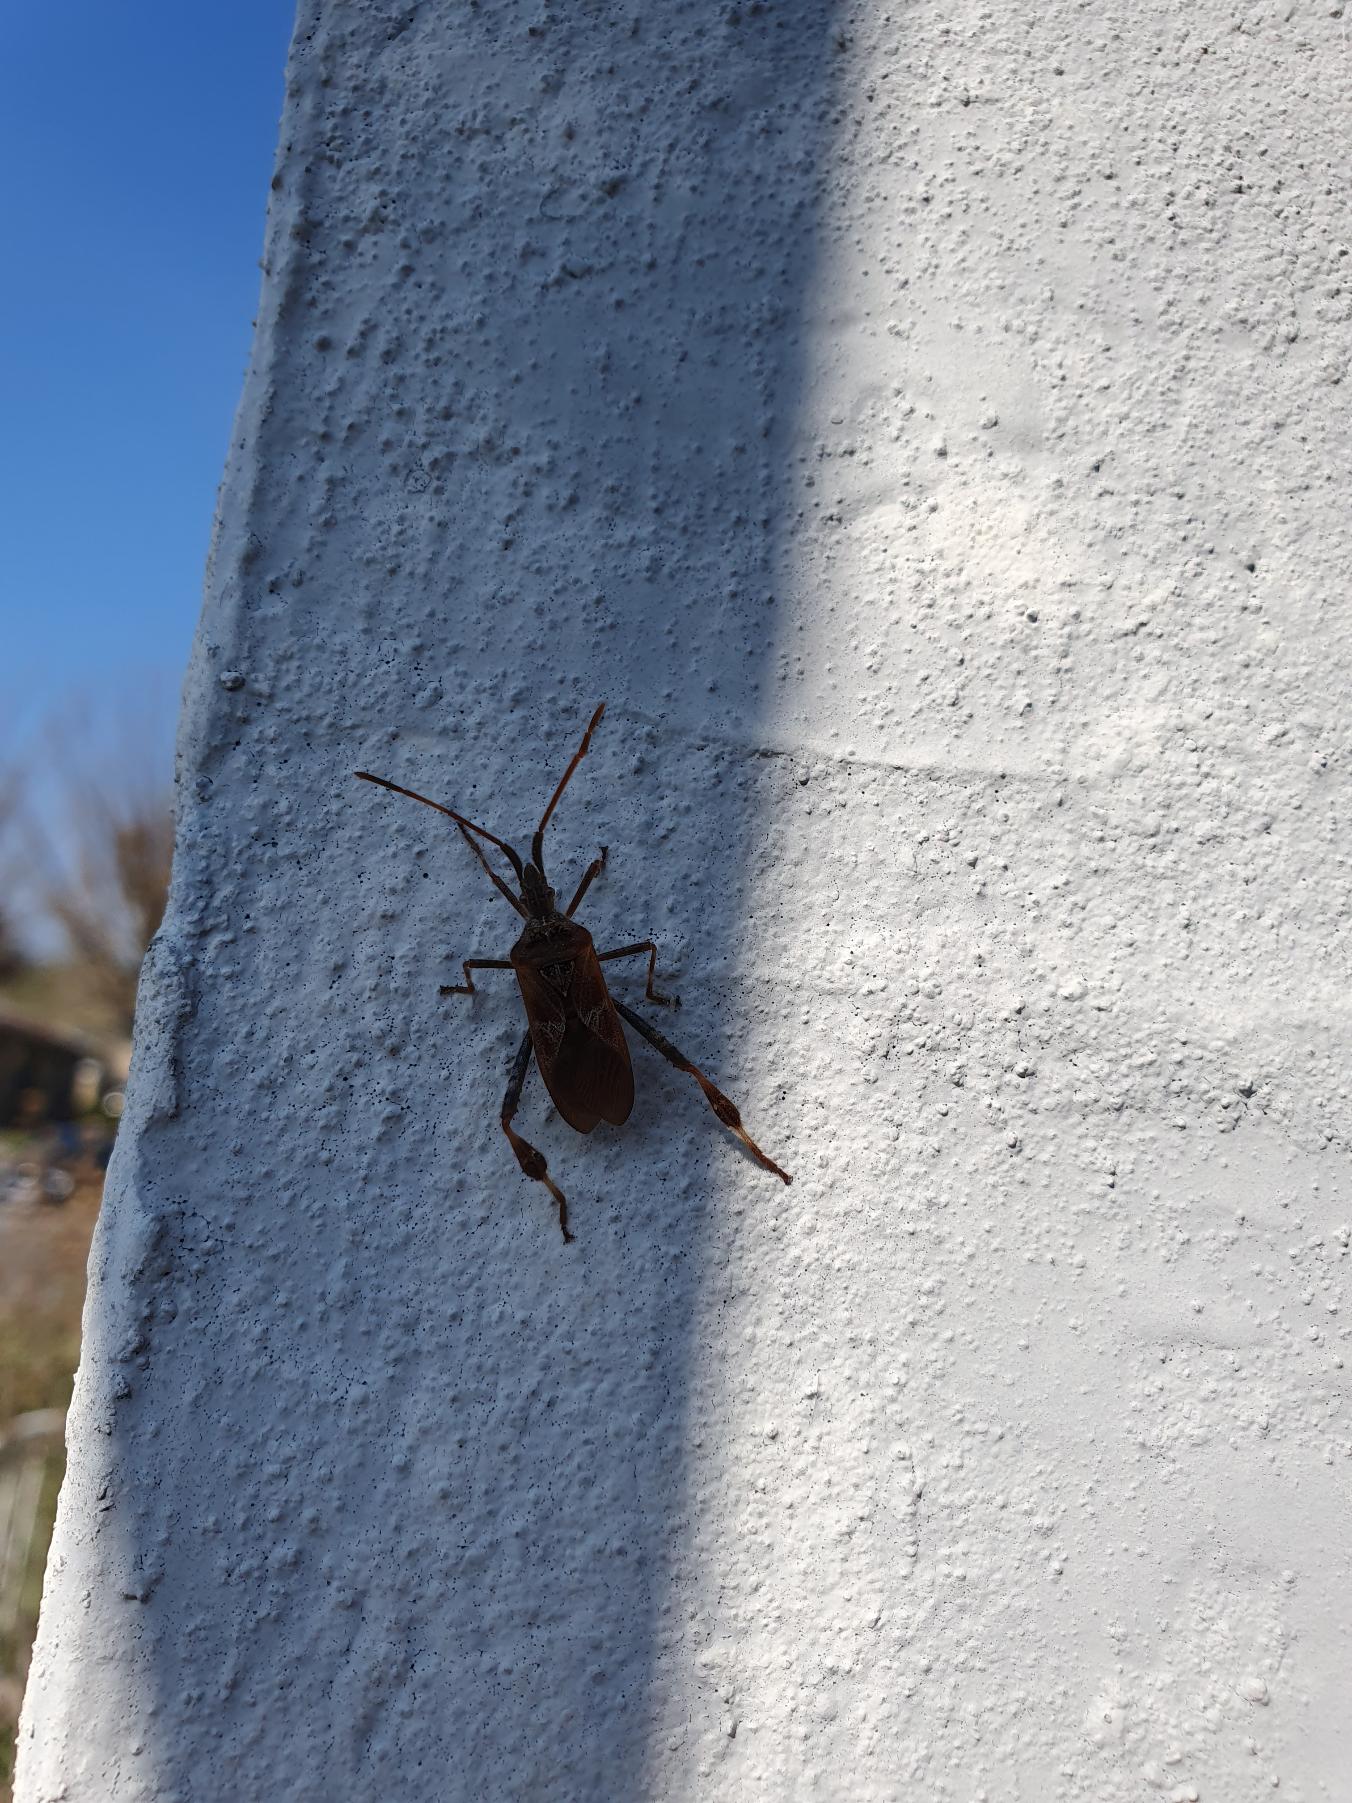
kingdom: Animalia
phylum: Arthropoda
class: Insecta
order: Hemiptera
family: Coreidae
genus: Leptoglossus
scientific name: Leptoglossus occidentalis
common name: Amerikansk fyrretæge
